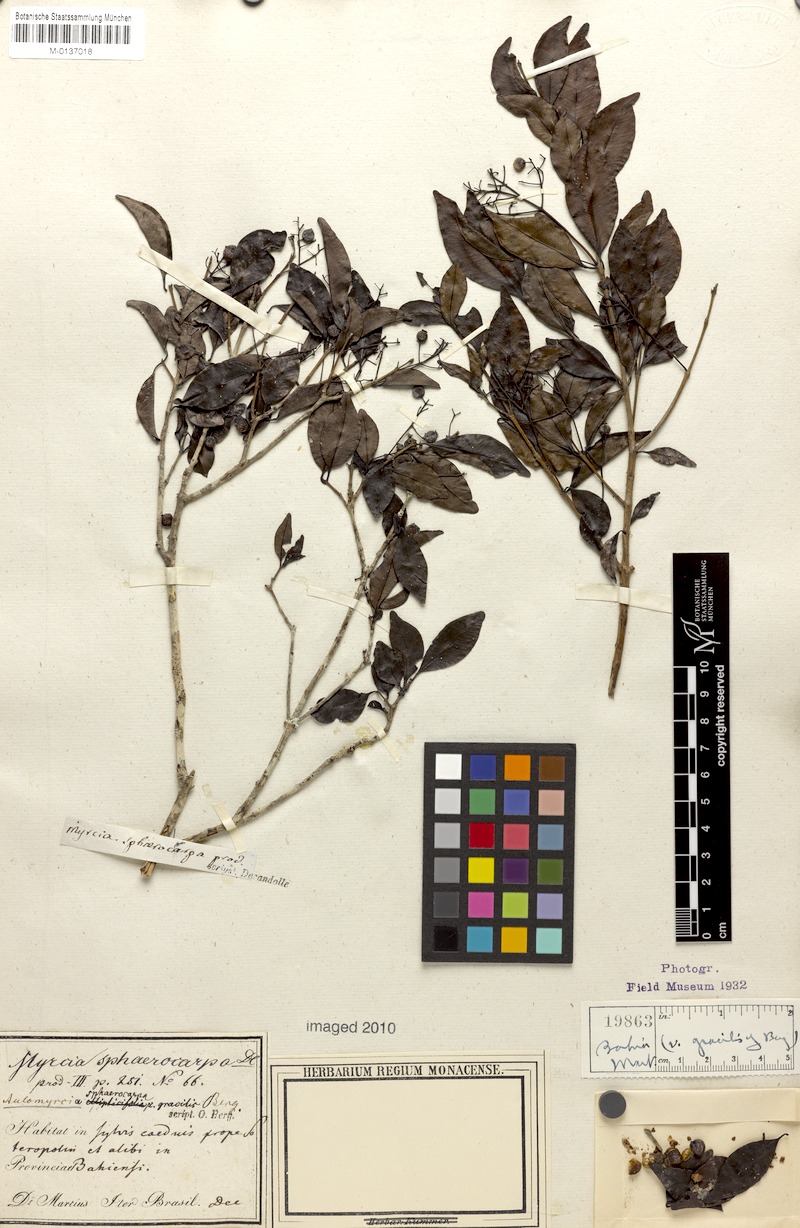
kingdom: Plantae
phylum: Tracheophyta
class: Magnoliopsida
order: Myrtales
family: Myrtaceae
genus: Myrcia
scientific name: Myrcia multiflora
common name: Pedra hume
